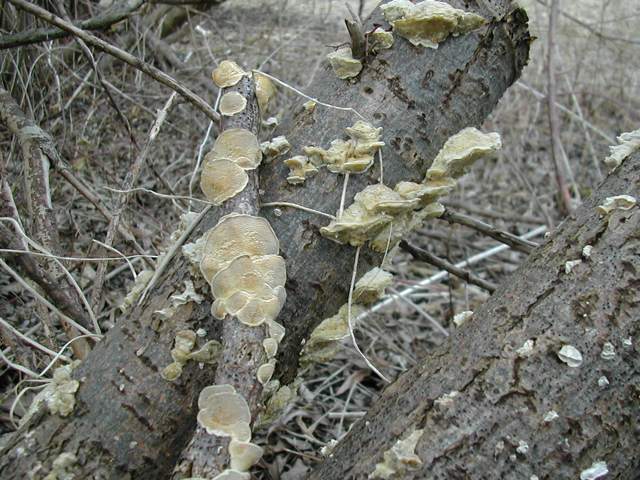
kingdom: Fungi
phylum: Basidiomycota
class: Agaricomycetes
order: Polyporales
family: Polyporaceae
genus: Trametes
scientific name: Trametes hirsuta
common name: håret læderporesvamp
